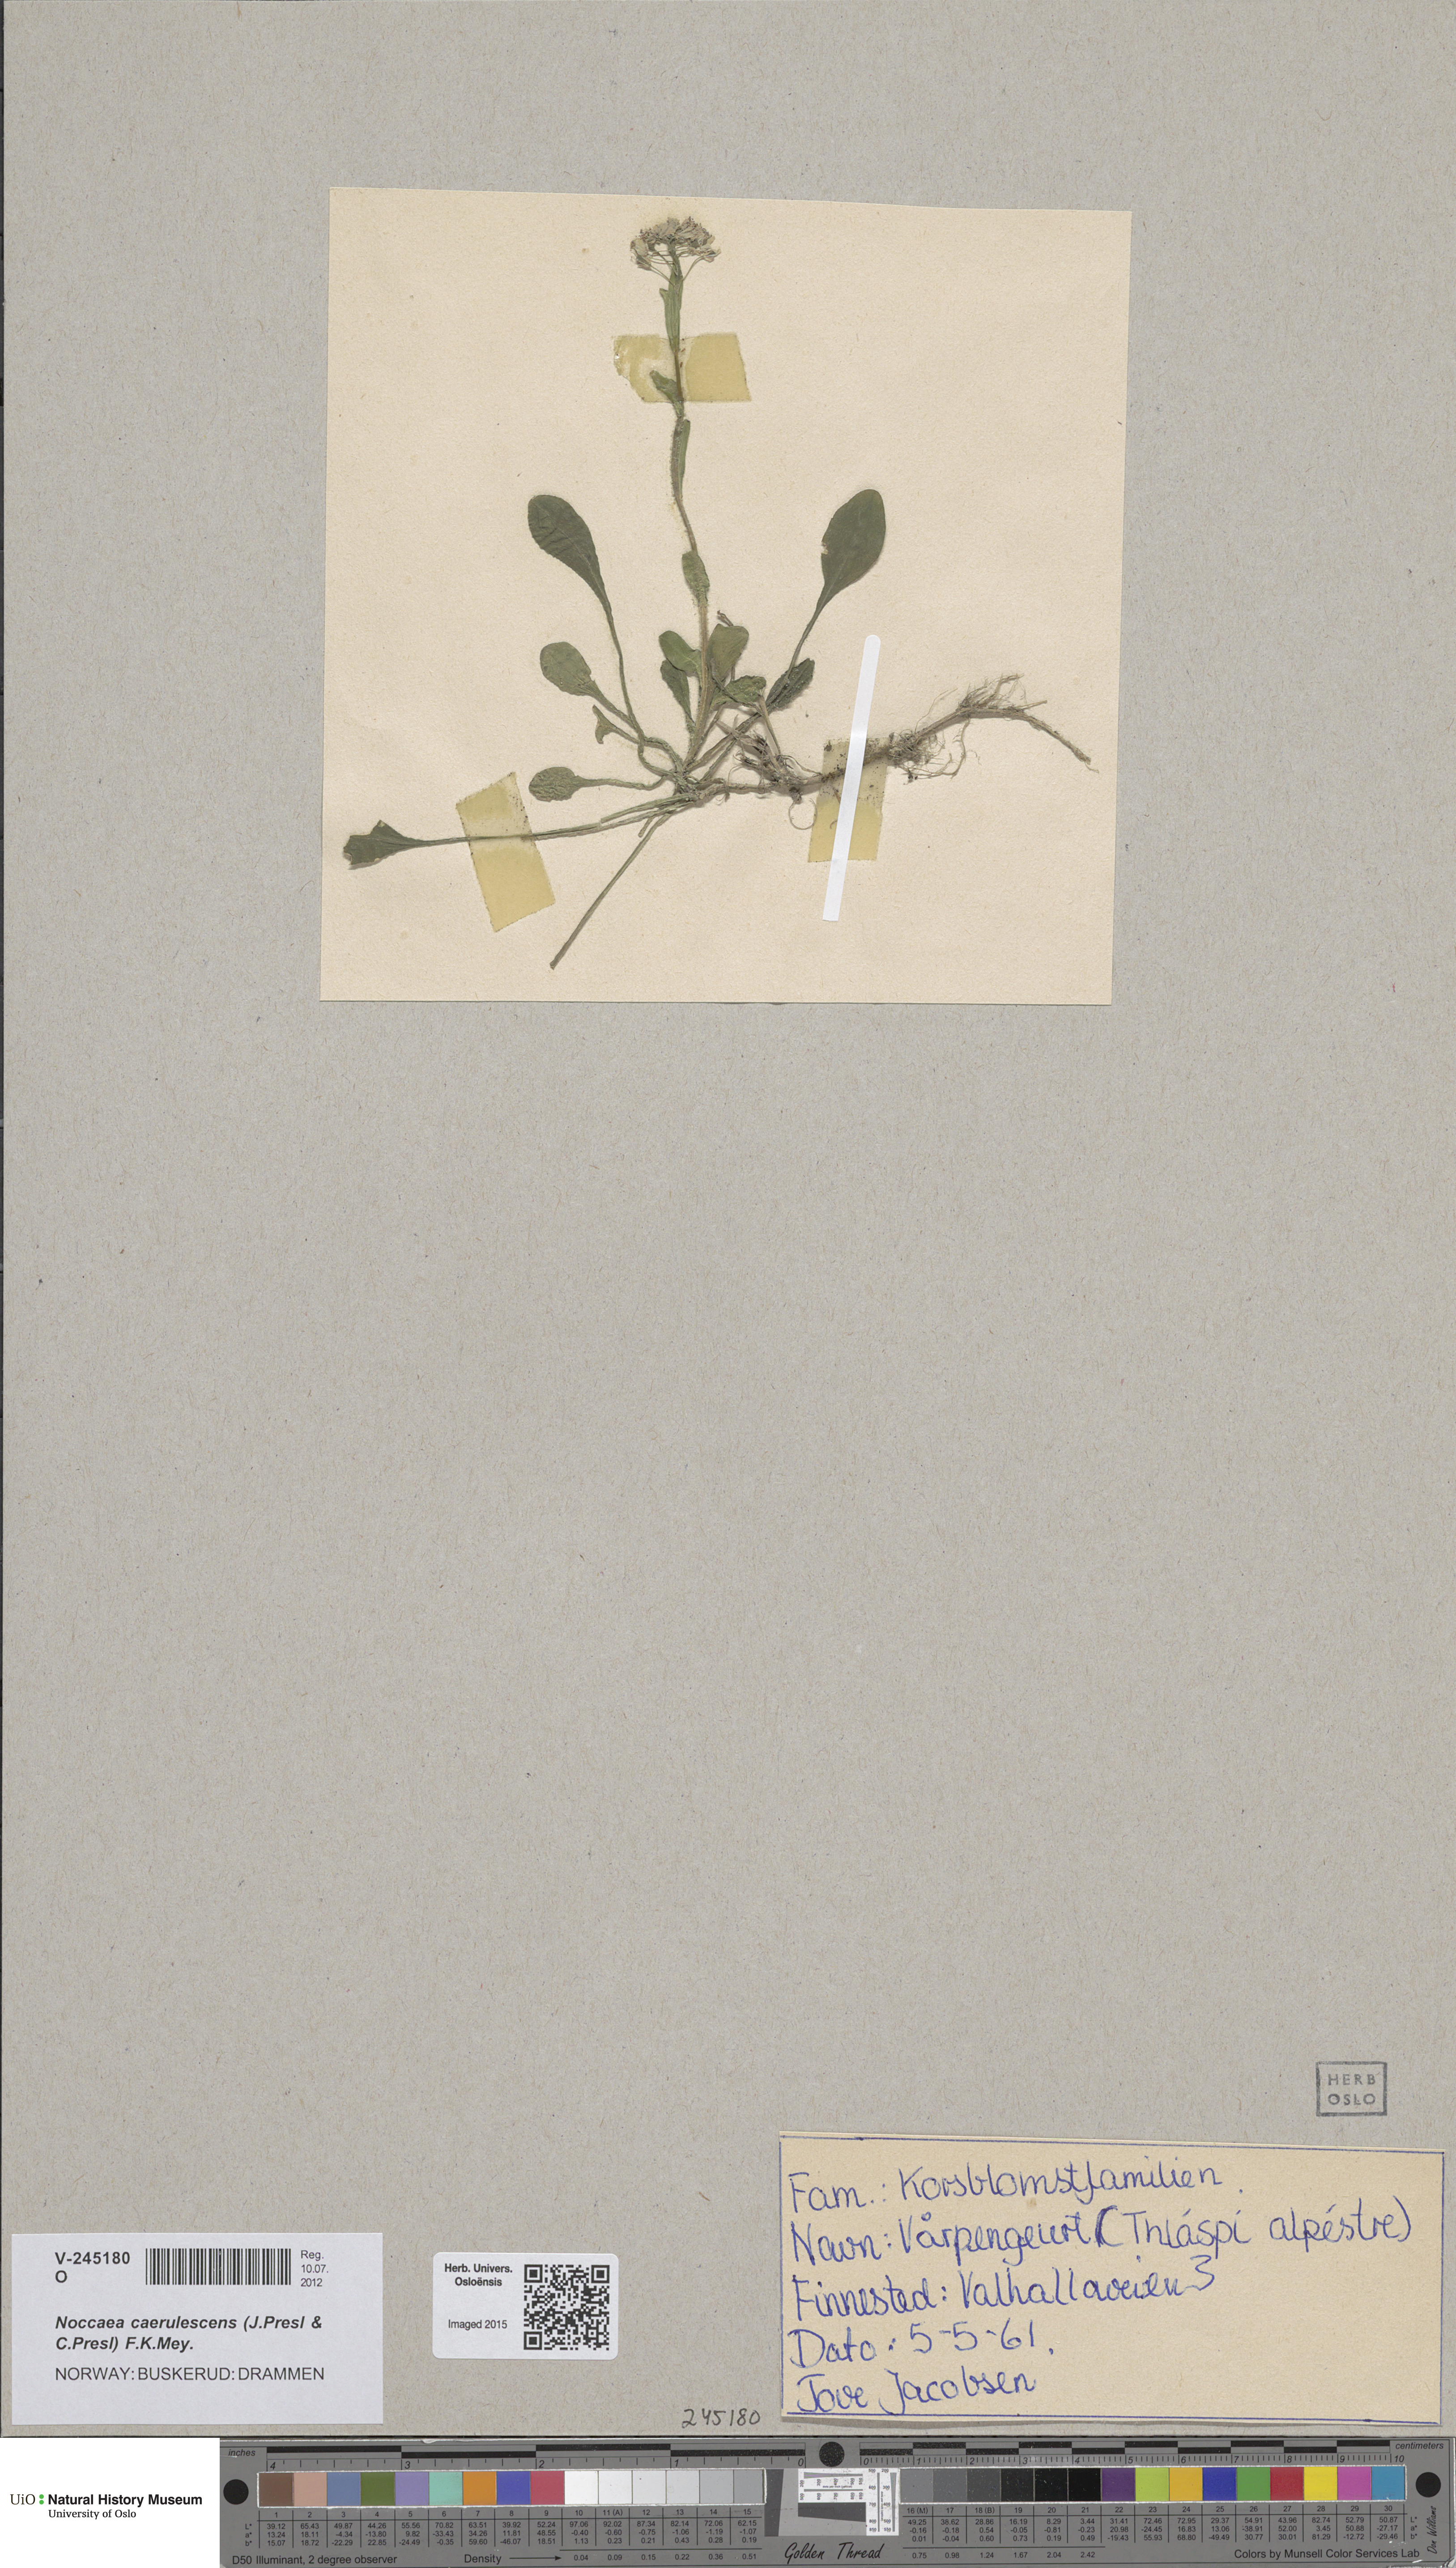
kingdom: Plantae
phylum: Tracheophyta
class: Magnoliopsida
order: Brassicales
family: Brassicaceae
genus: Noccaea
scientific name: Noccaea caerulescens
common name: Alpine pennycress
